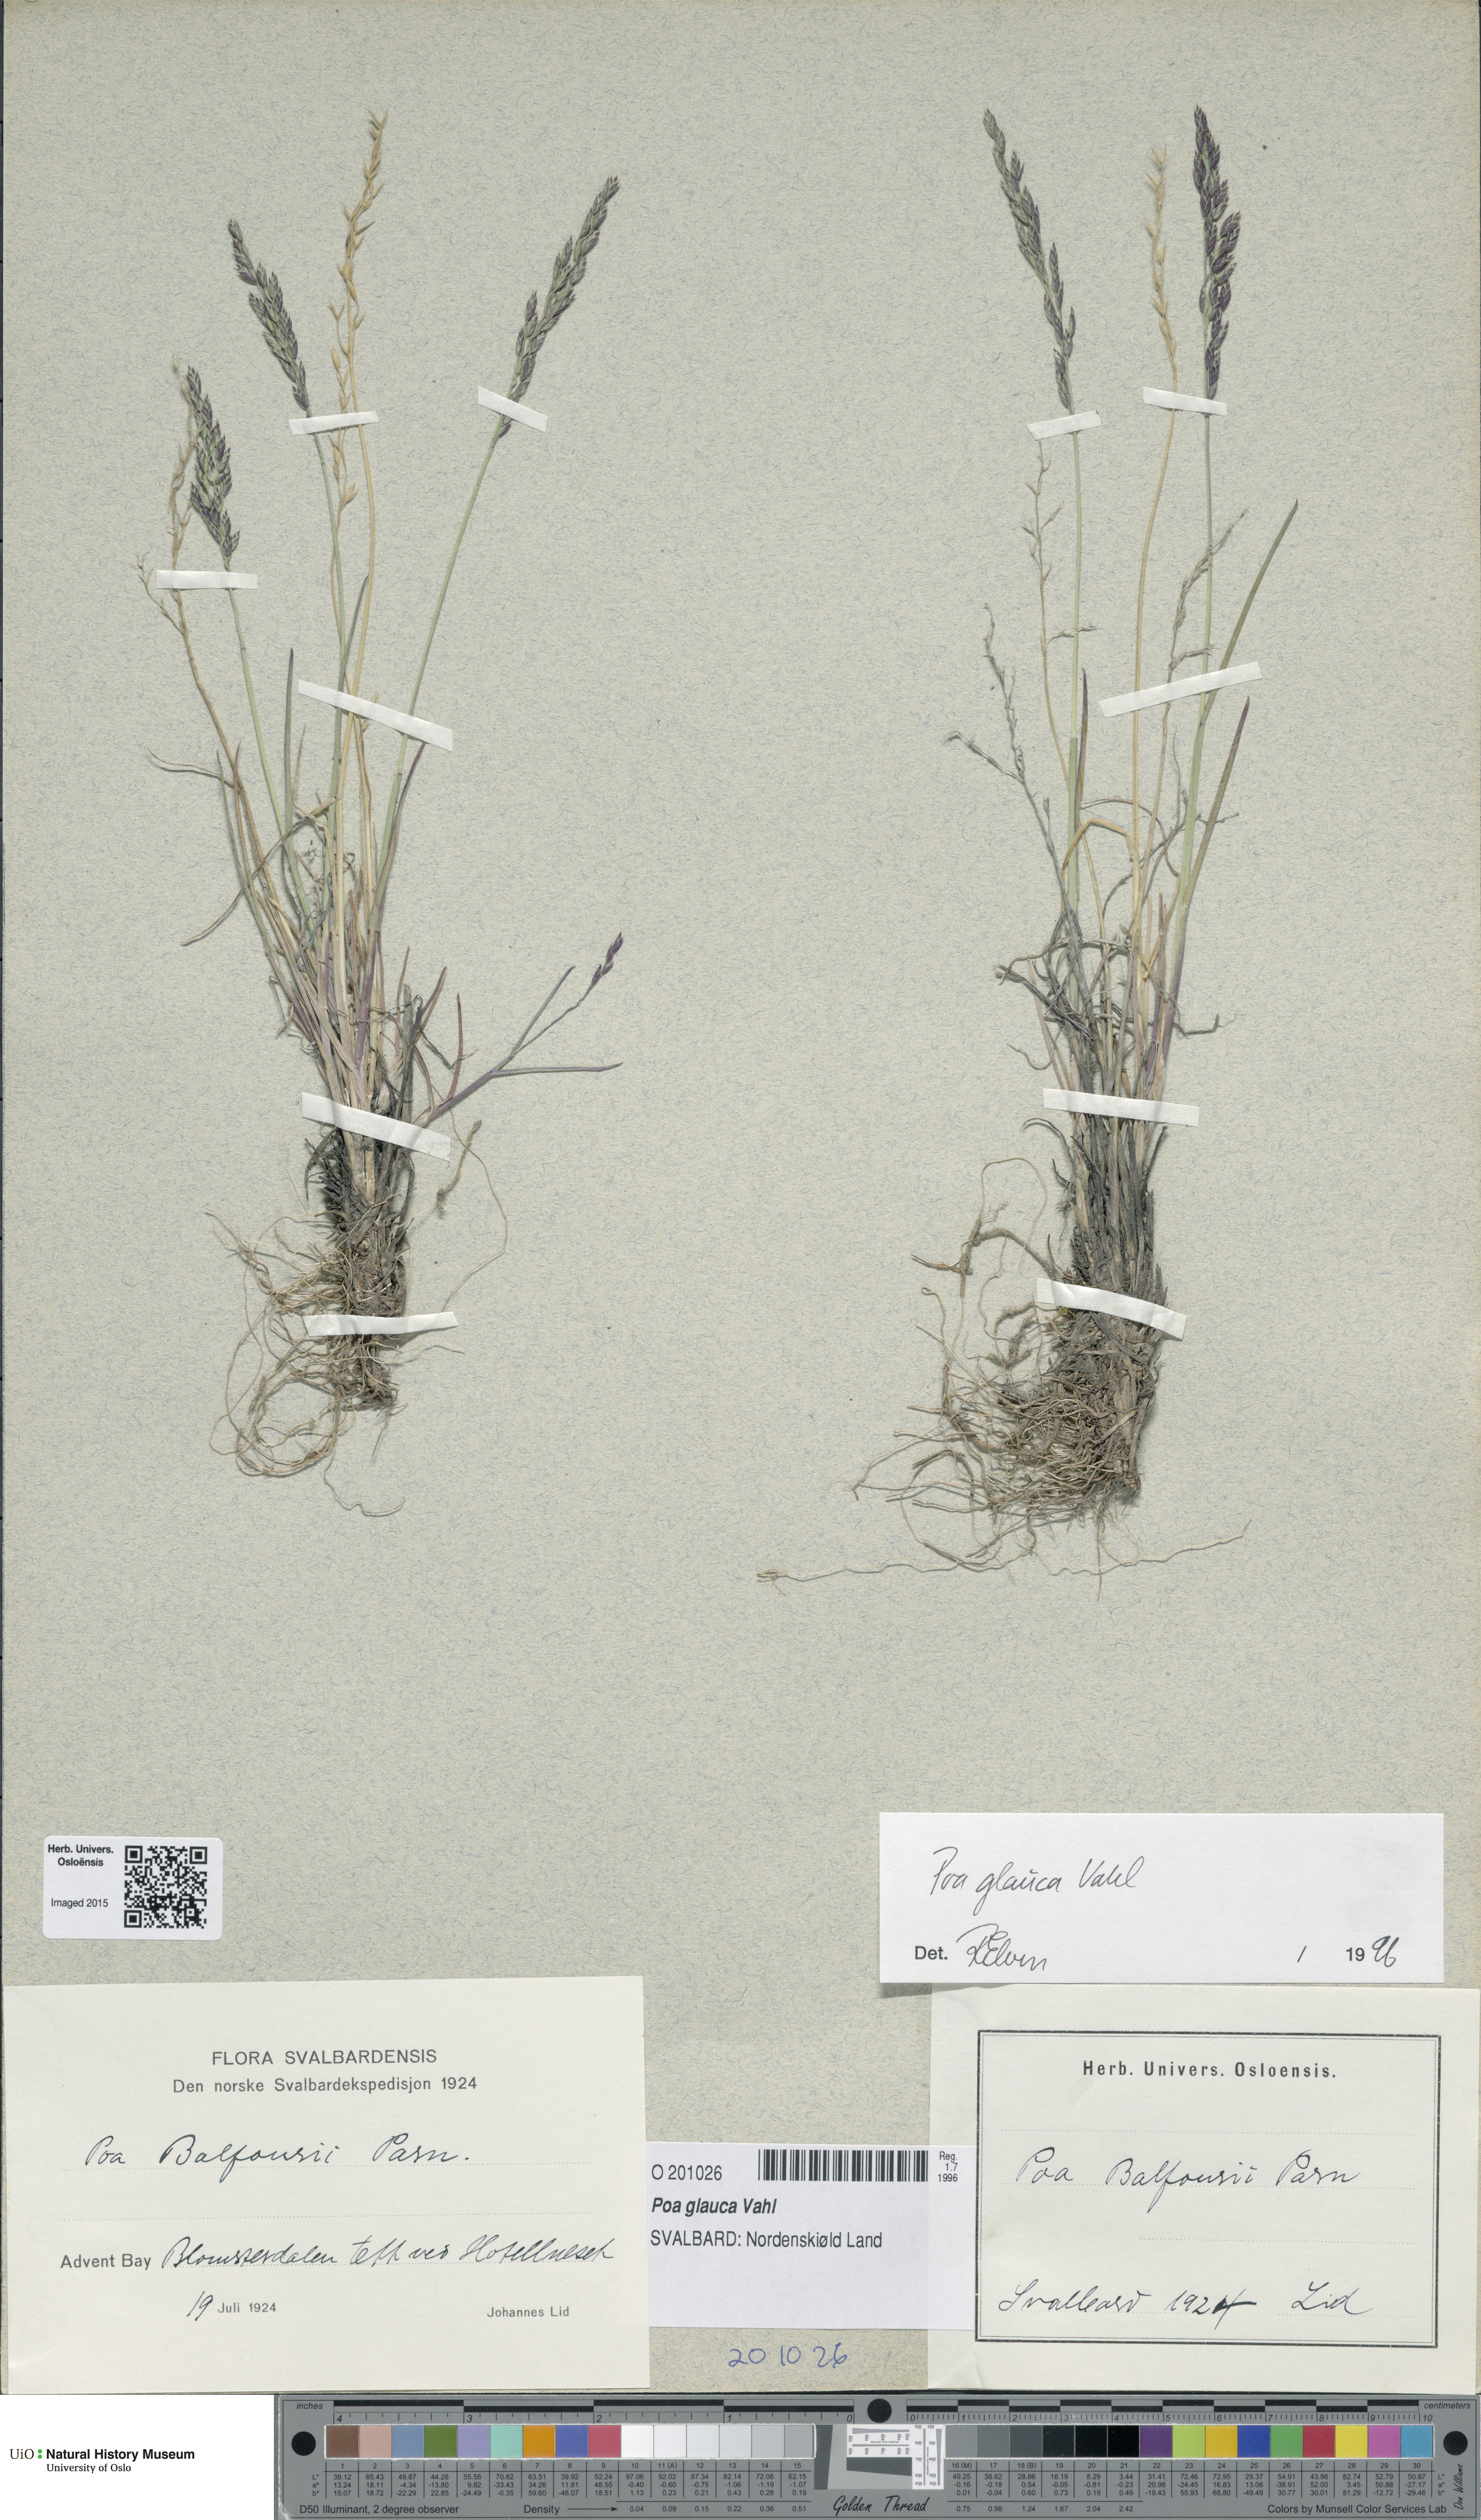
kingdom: Plantae
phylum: Tracheophyta
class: Liliopsida
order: Poales
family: Poaceae
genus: Poa
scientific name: Poa glauca
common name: Glaucous bluegrass
